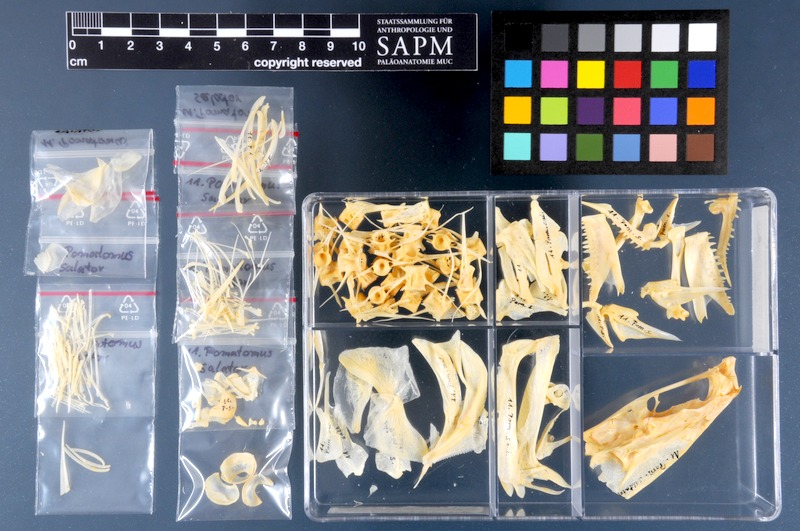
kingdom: Animalia
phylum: Chordata
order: Perciformes
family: Pomatomidae
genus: Pomatomus
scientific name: Pomatomus saltatrix
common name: Bluefish
